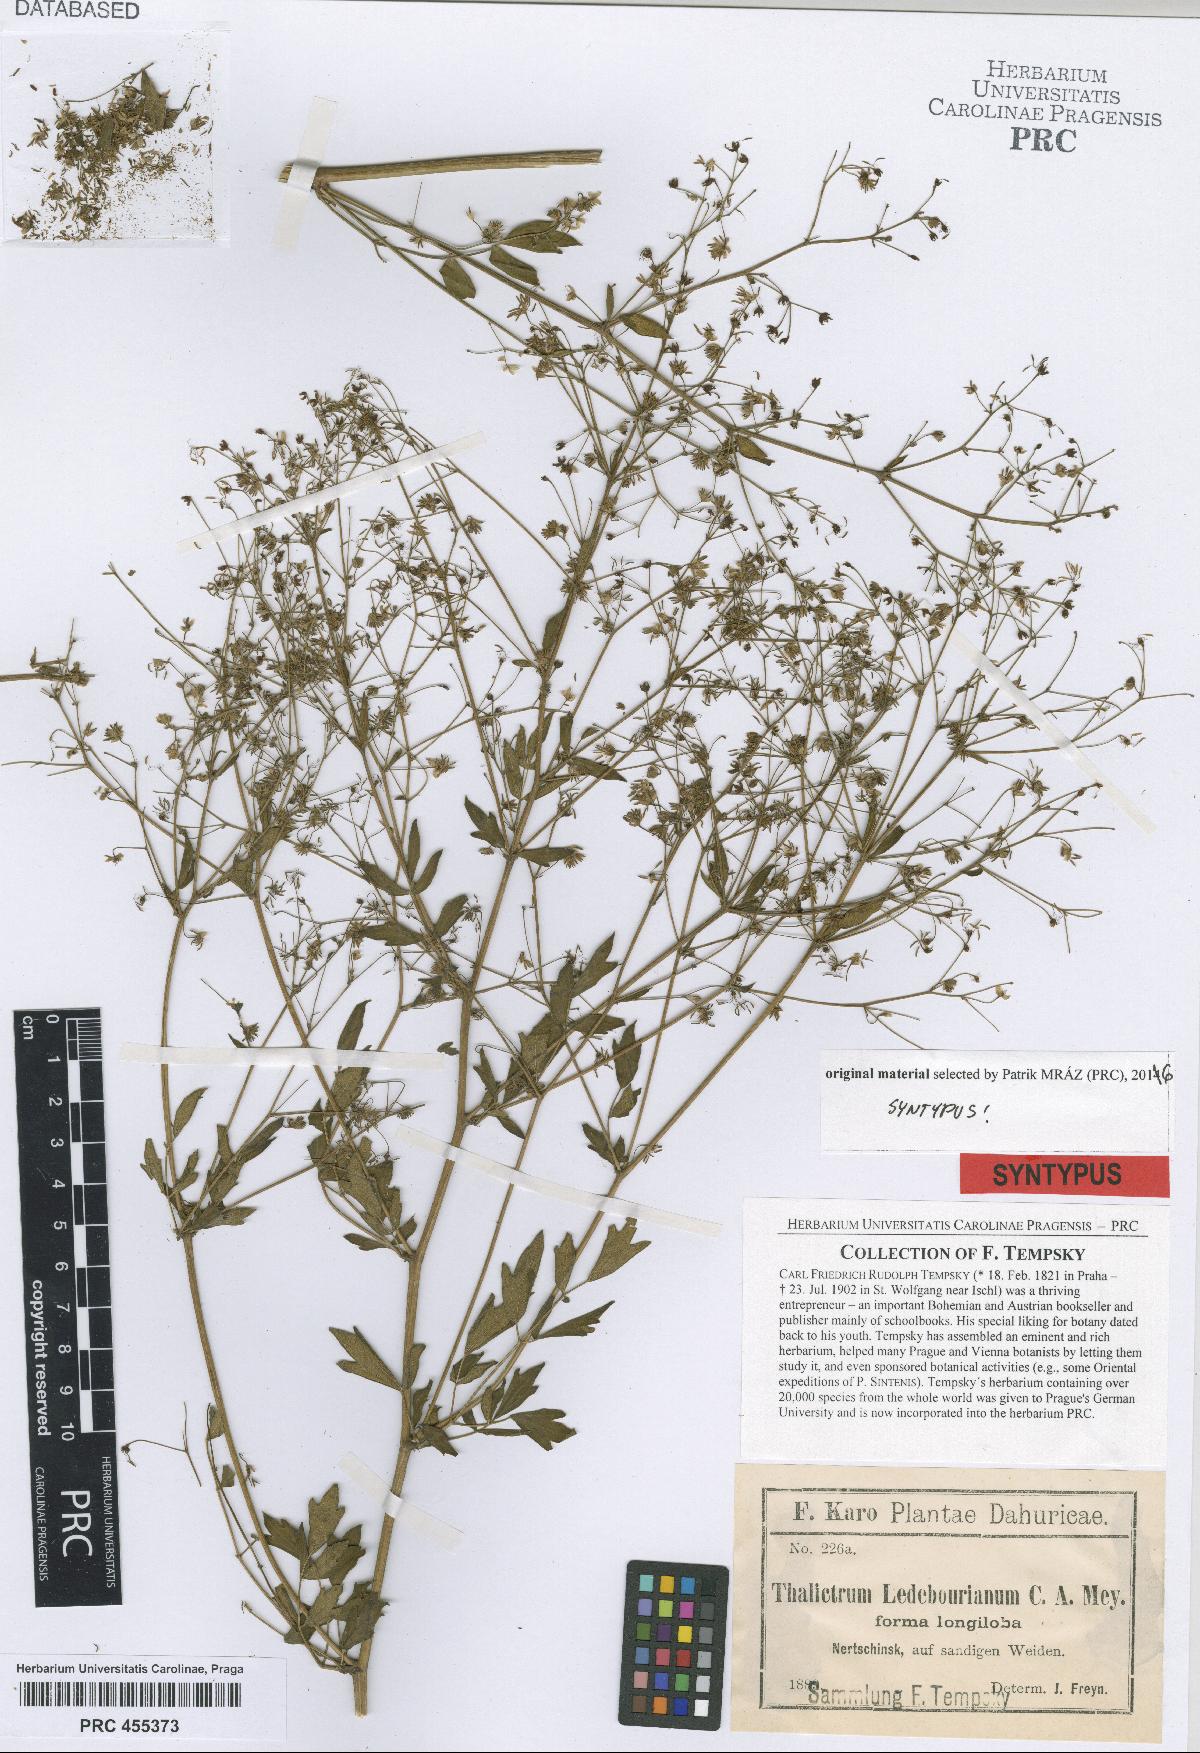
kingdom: Plantae
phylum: Tracheophyta
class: Magnoliopsida
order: Ranunculales
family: Ranunculaceae
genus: Thalictrum
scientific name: Thalictrum squarrosum
